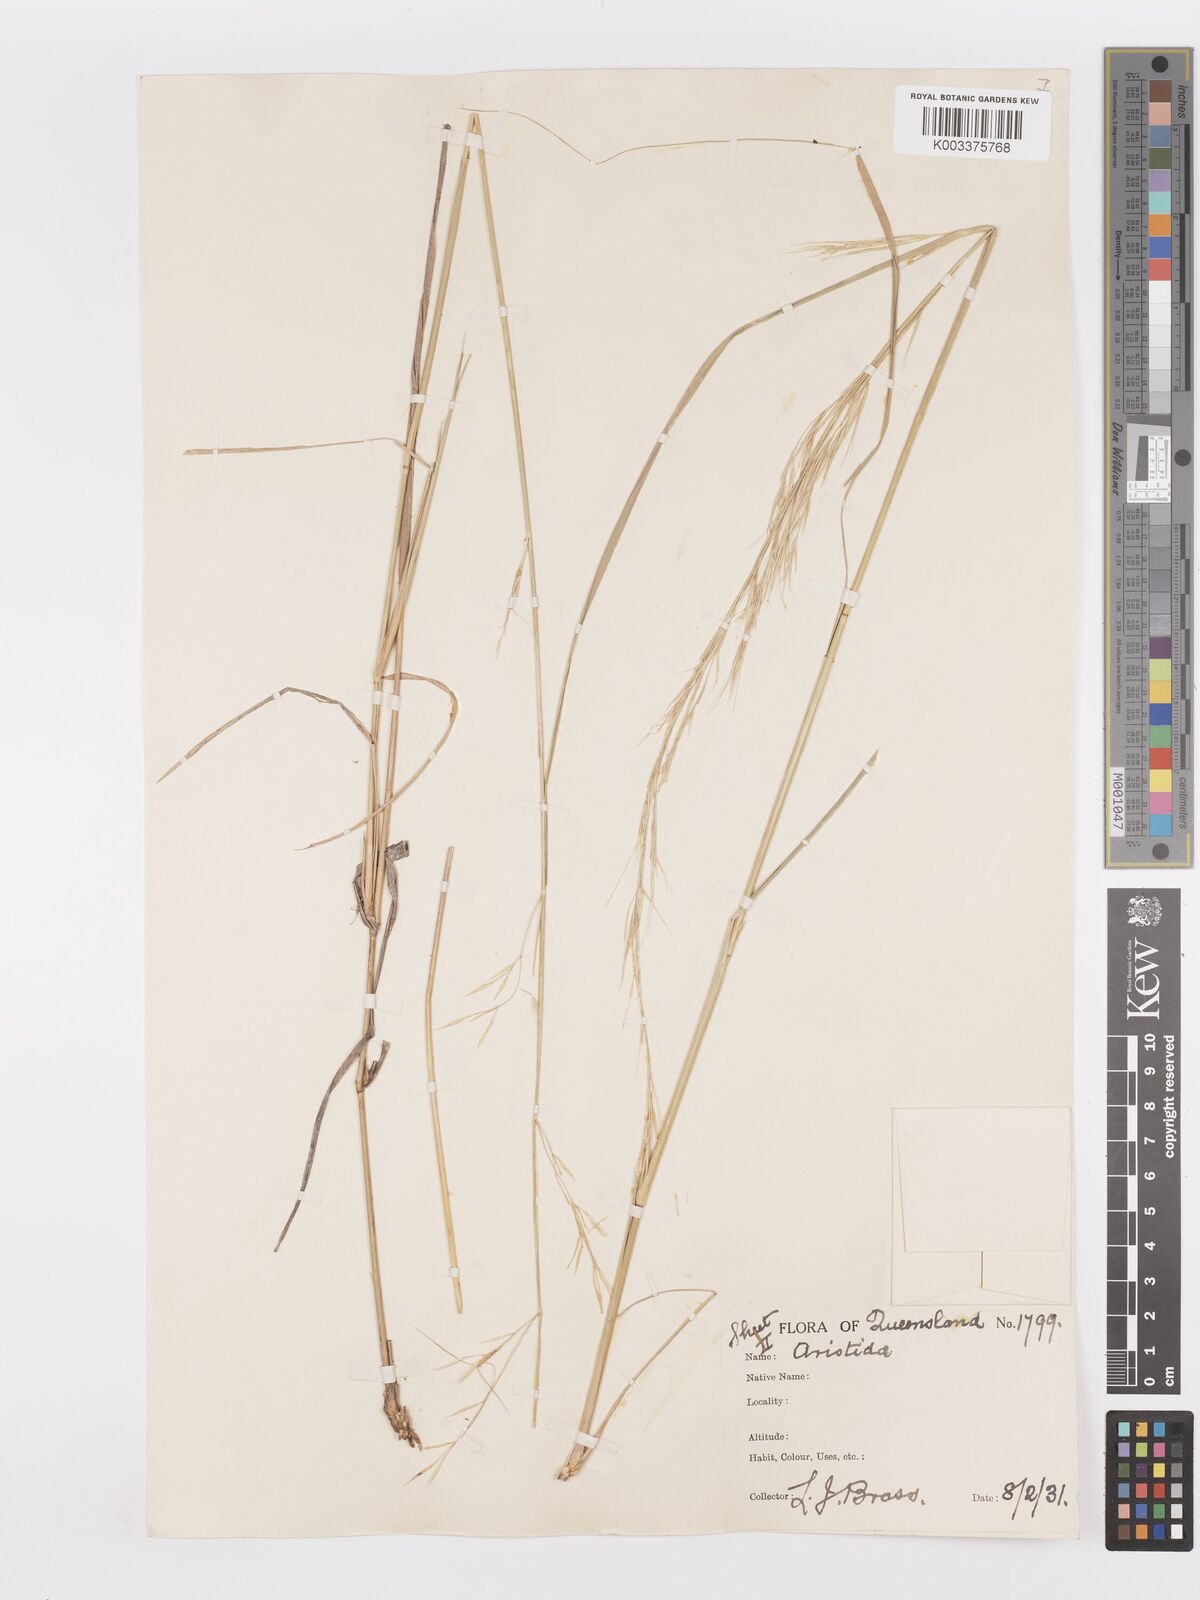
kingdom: Plantae
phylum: Tracheophyta
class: Liliopsida
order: Poales
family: Poaceae
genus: Aristida
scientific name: Aristida
